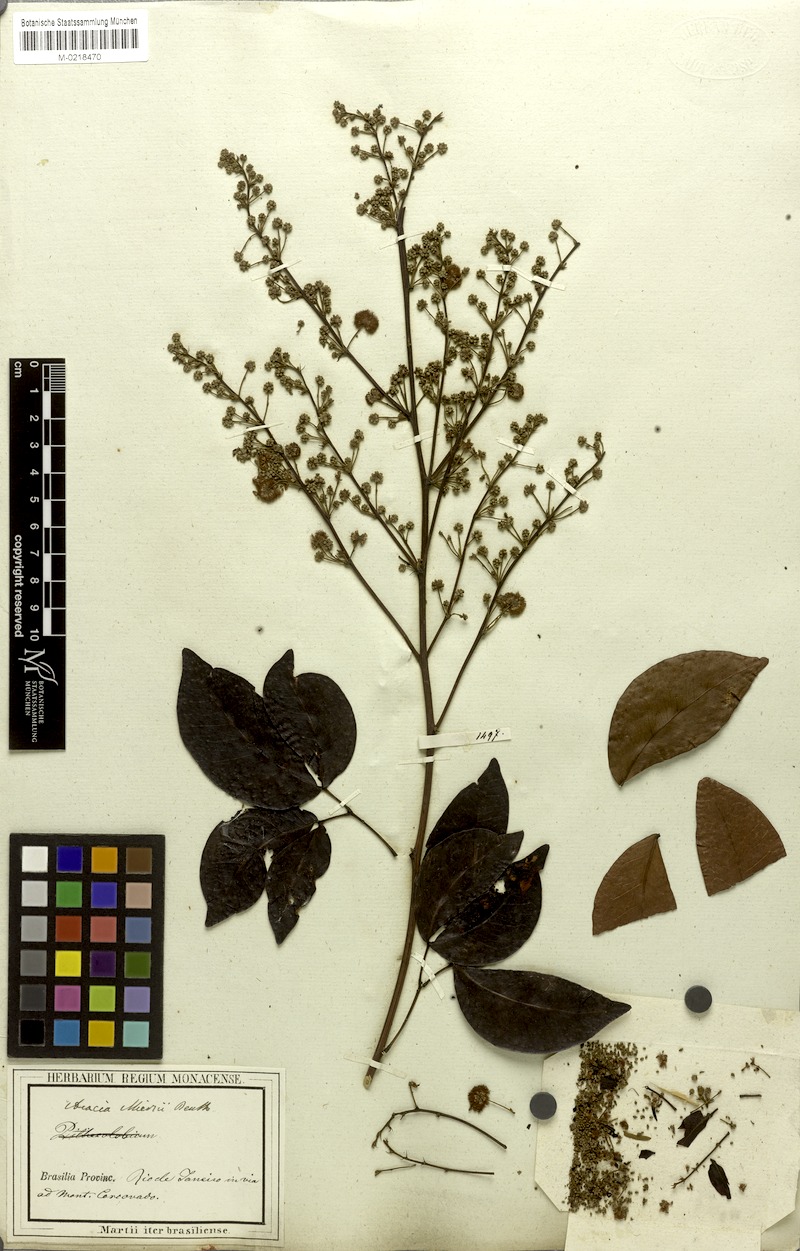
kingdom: Plantae
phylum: Tracheophyta
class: Magnoliopsida
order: Fabales
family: Fabaceae
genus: Parasenegalia
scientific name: Parasenegalia miersii
